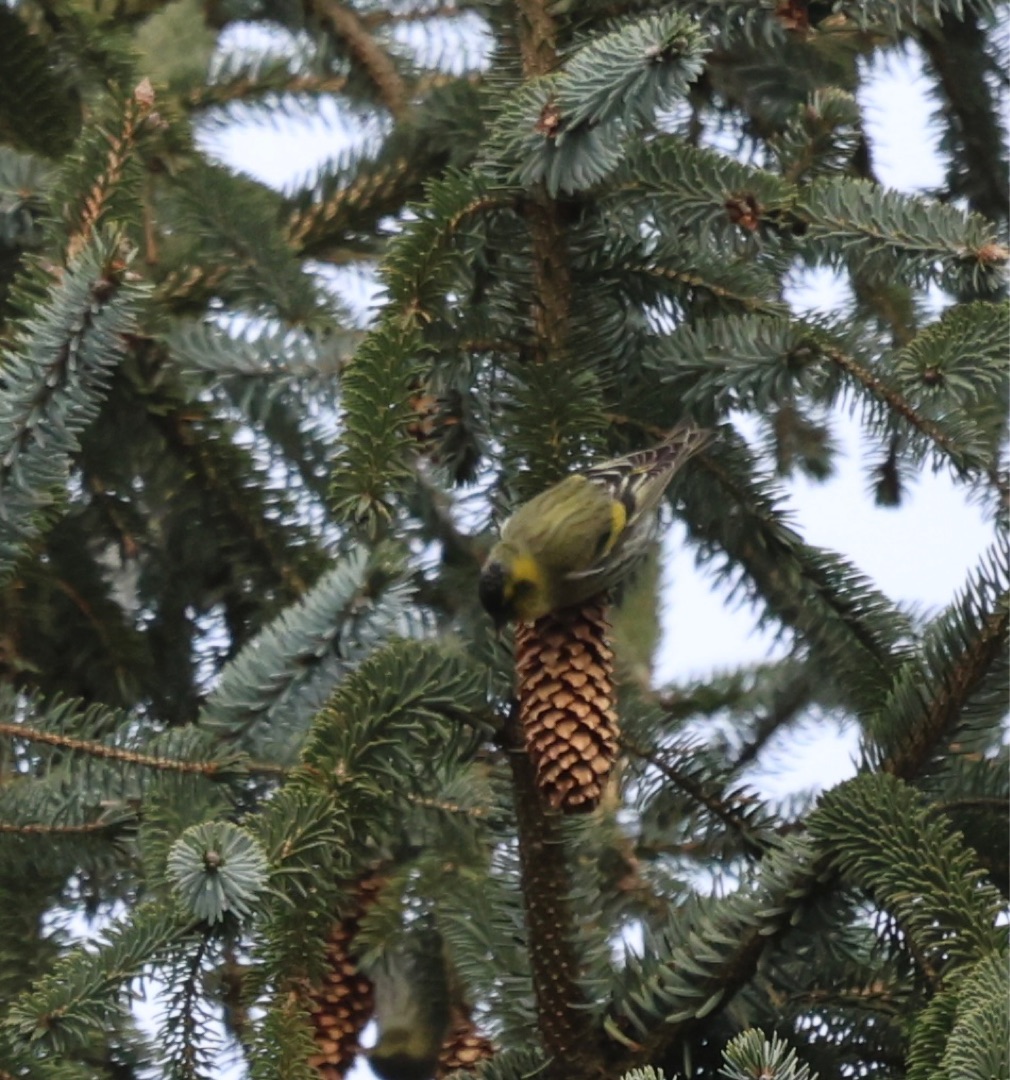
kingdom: Animalia
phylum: Chordata
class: Aves
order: Passeriformes
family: Fringillidae
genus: Spinus
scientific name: Spinus spinus
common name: Grønsisken
